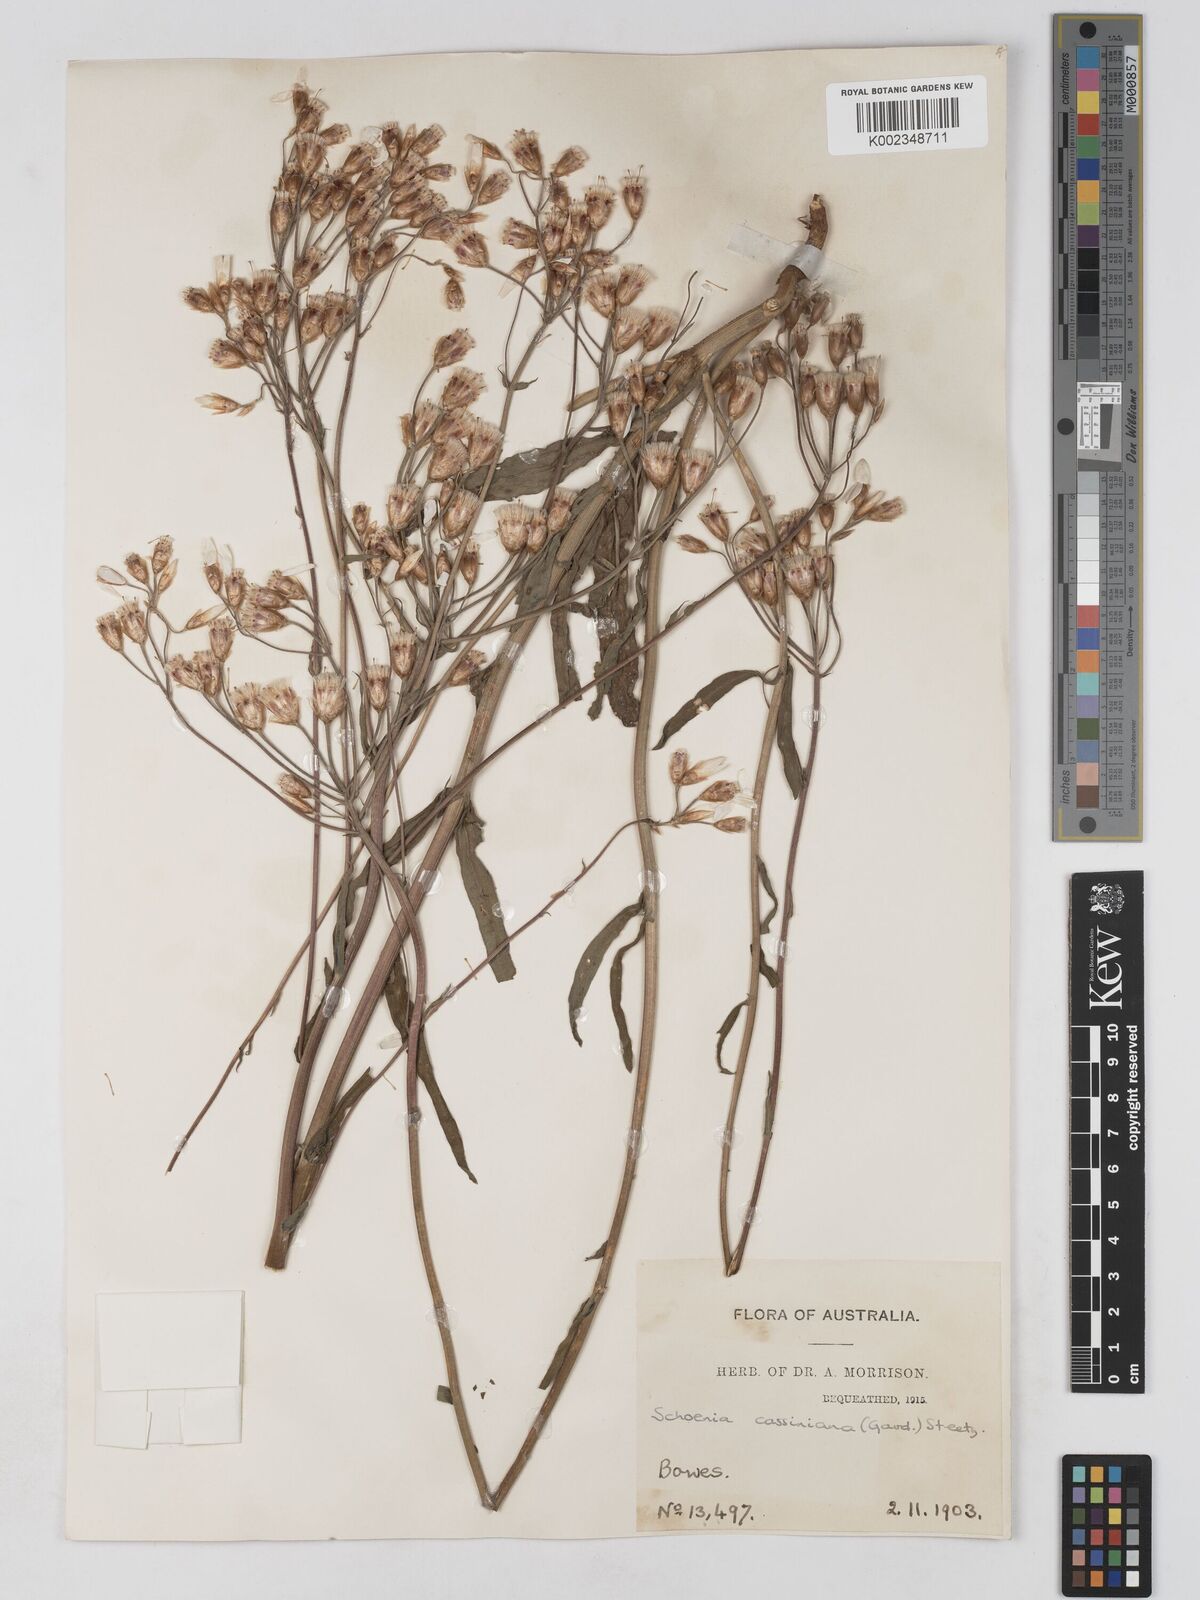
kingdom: Plantae
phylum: Tracheophyta
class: Magnoliopsida
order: Asterales
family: Asteraceae
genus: Schoenia
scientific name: Schoenia cassiniana
